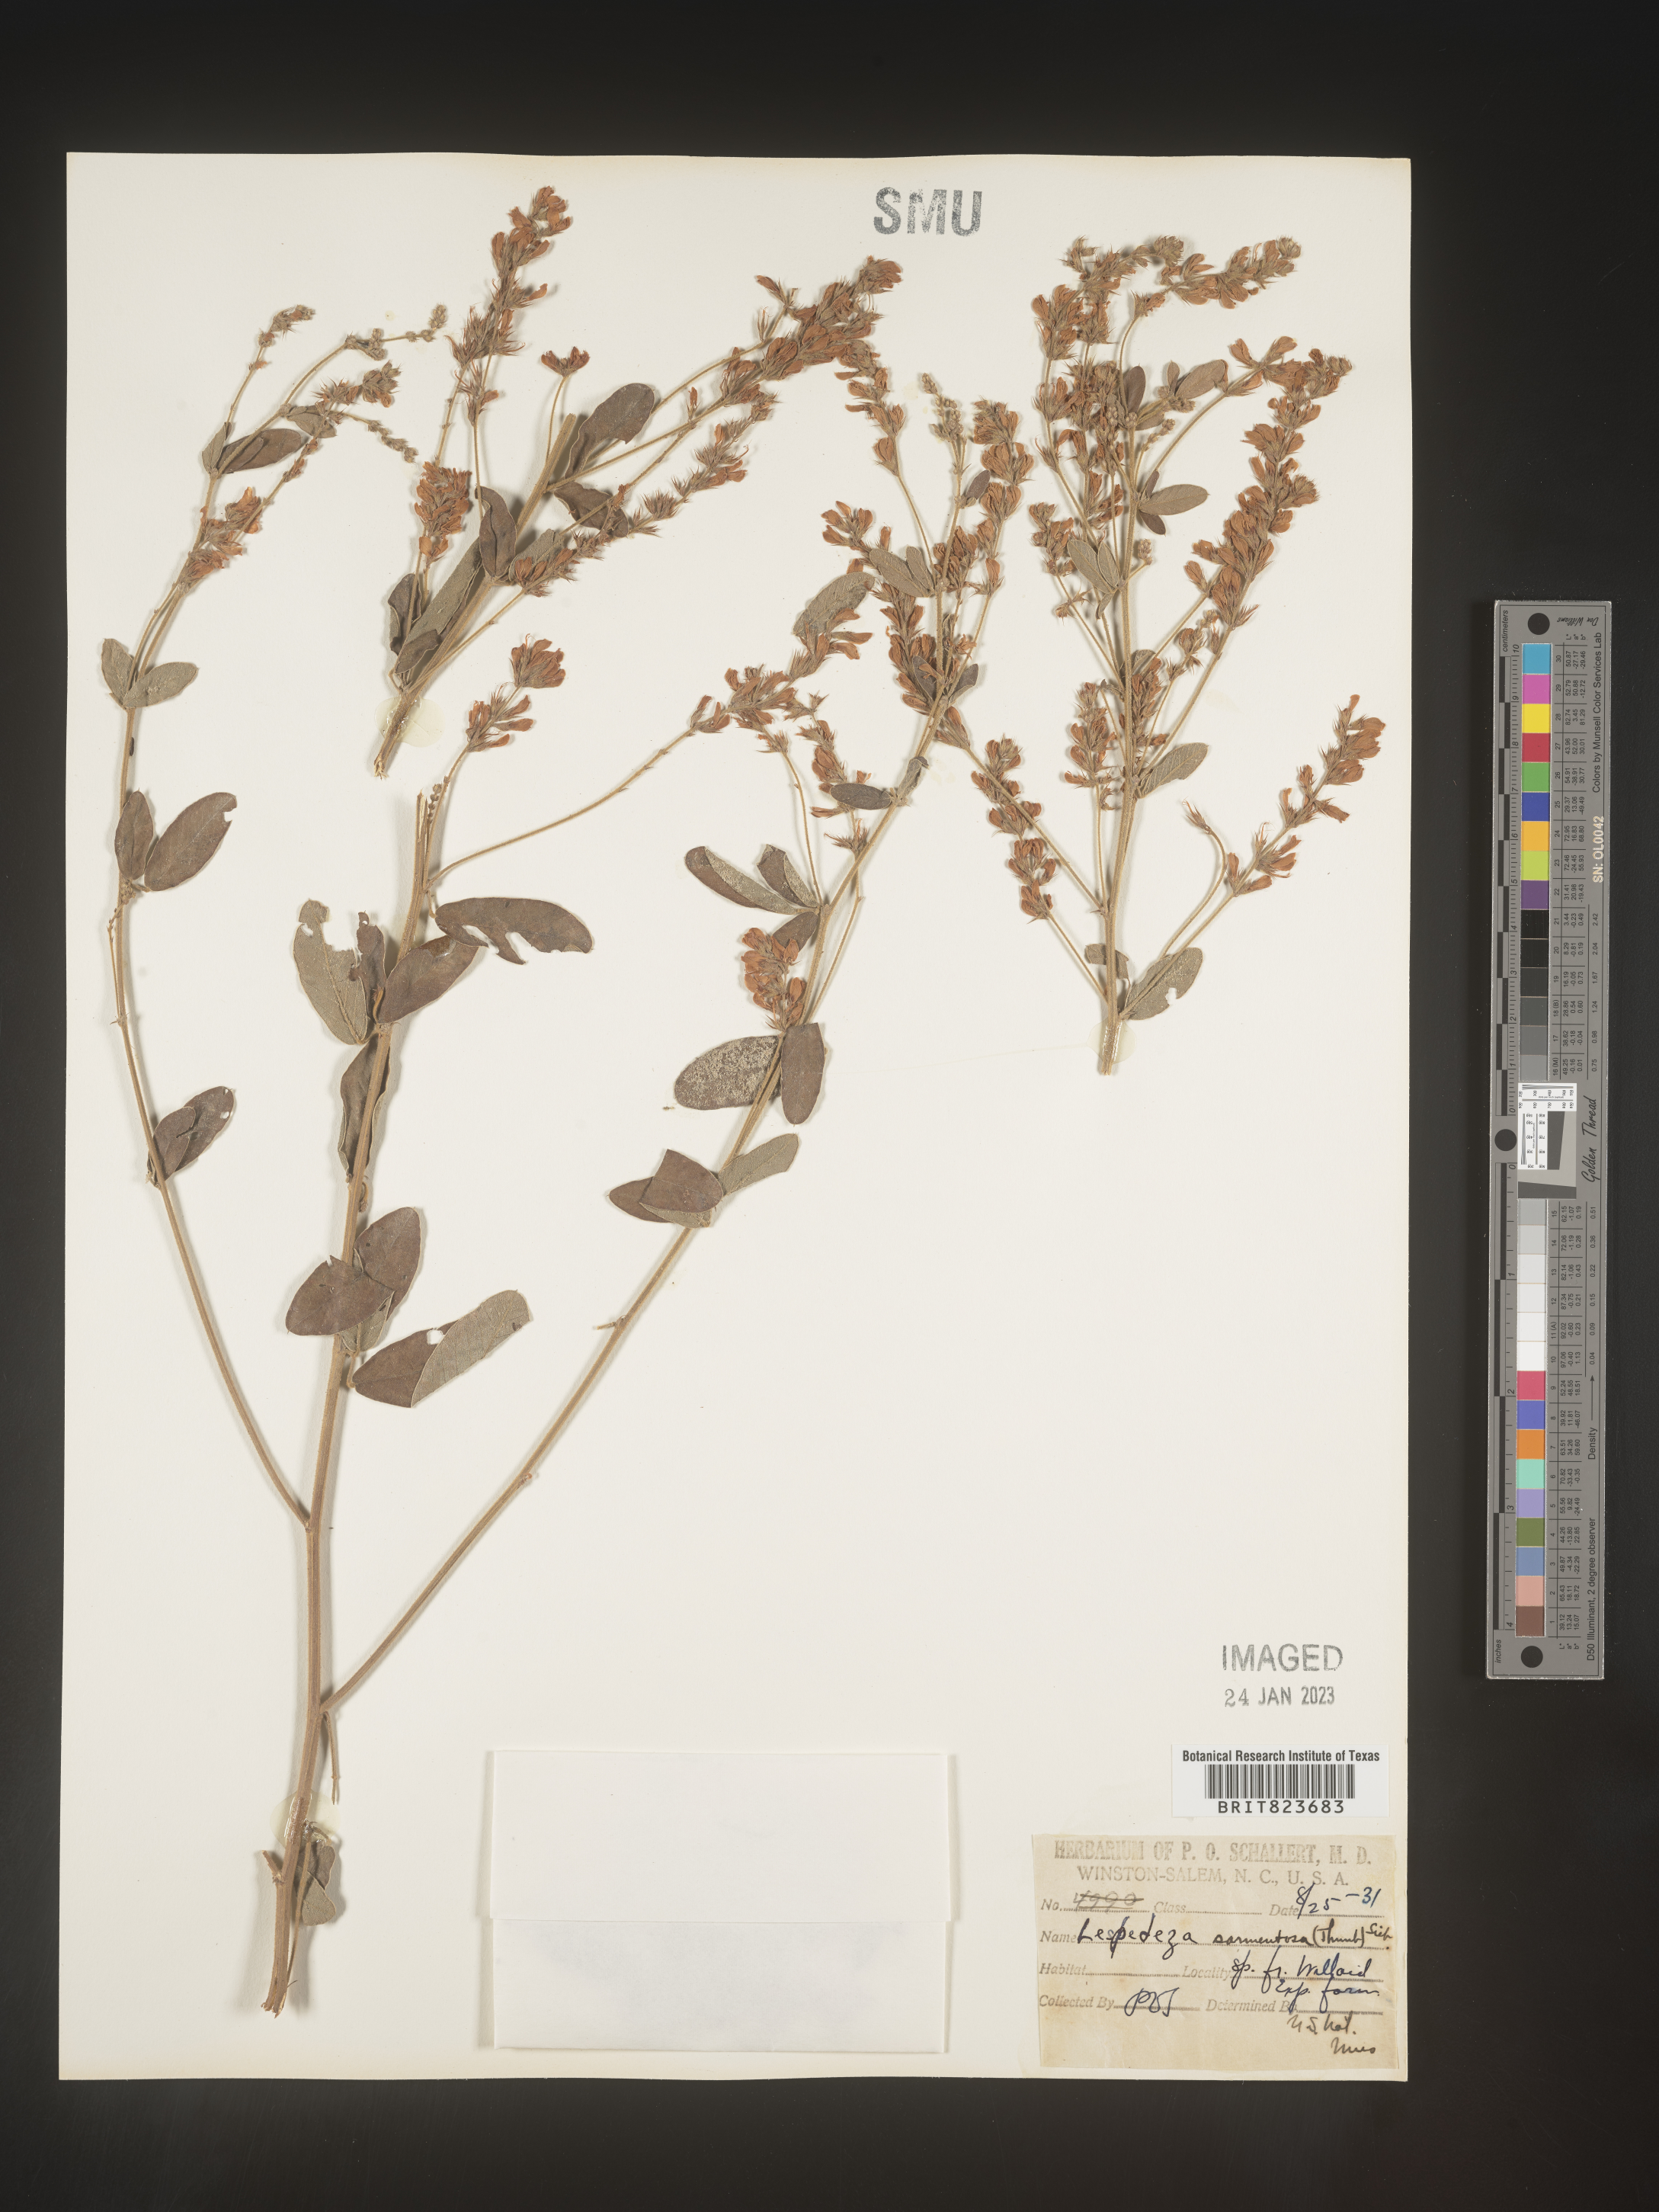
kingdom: Plantae
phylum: Tracheophyta
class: Magnoliopsida
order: Fabales
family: Fabaceae
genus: Lespedeza
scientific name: Lespedeza
